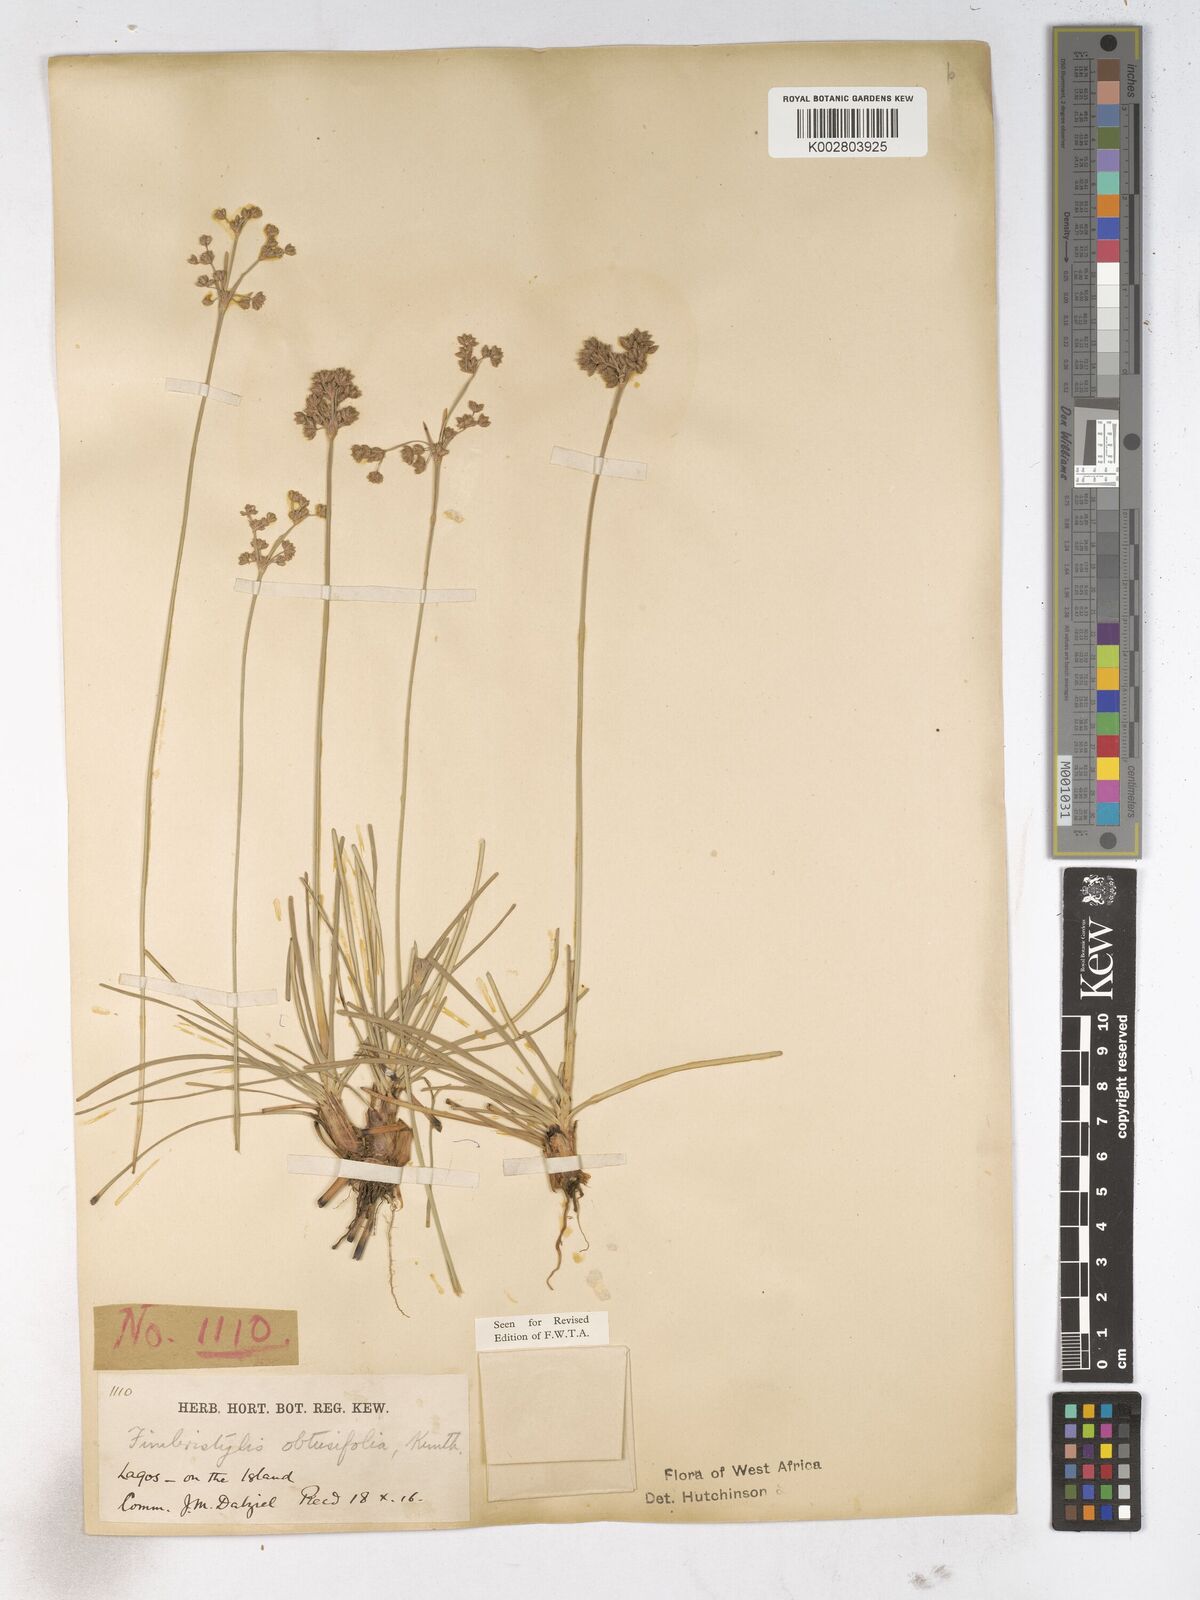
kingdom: Plantae
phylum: Tracheophyta
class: Liliopsida
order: Poales
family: Cyperaceae
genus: Fimbristylis
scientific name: Fimbristylis cymosa
